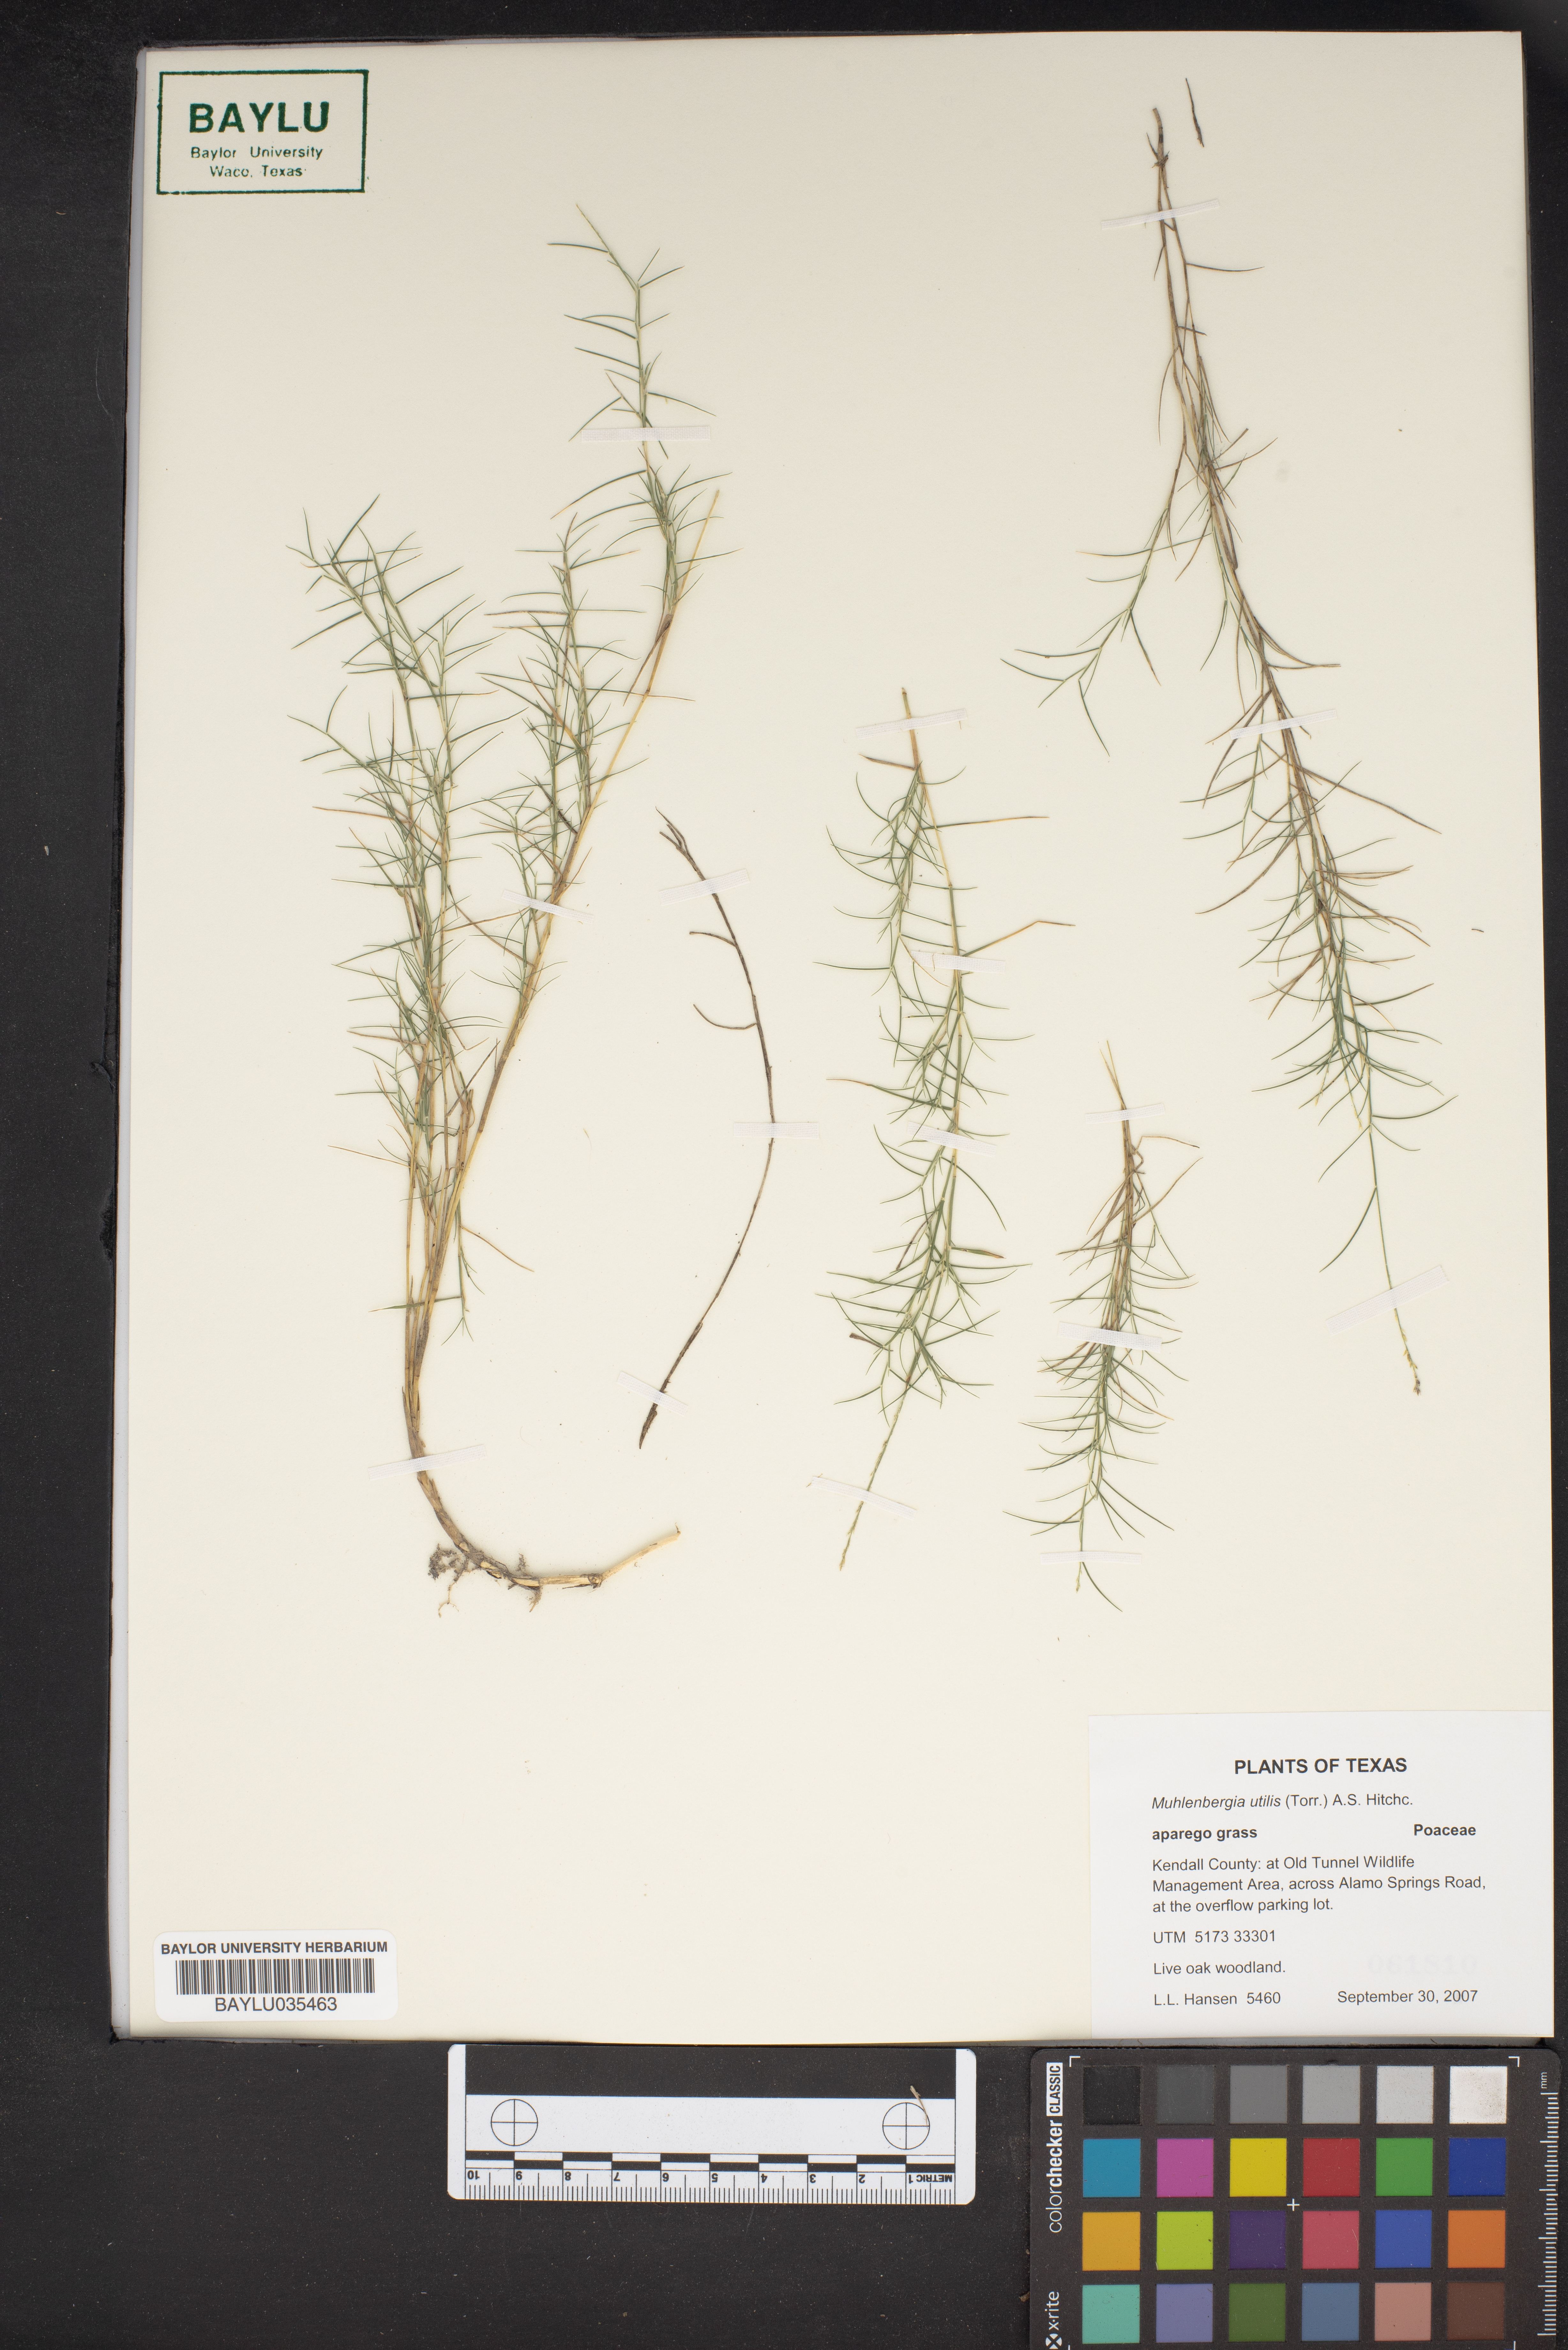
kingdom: Plantae
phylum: Tracheophyta
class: Liliopsida
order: Poales
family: Poaceae
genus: Muhlenbergia
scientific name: Muhlenbergia utilis
